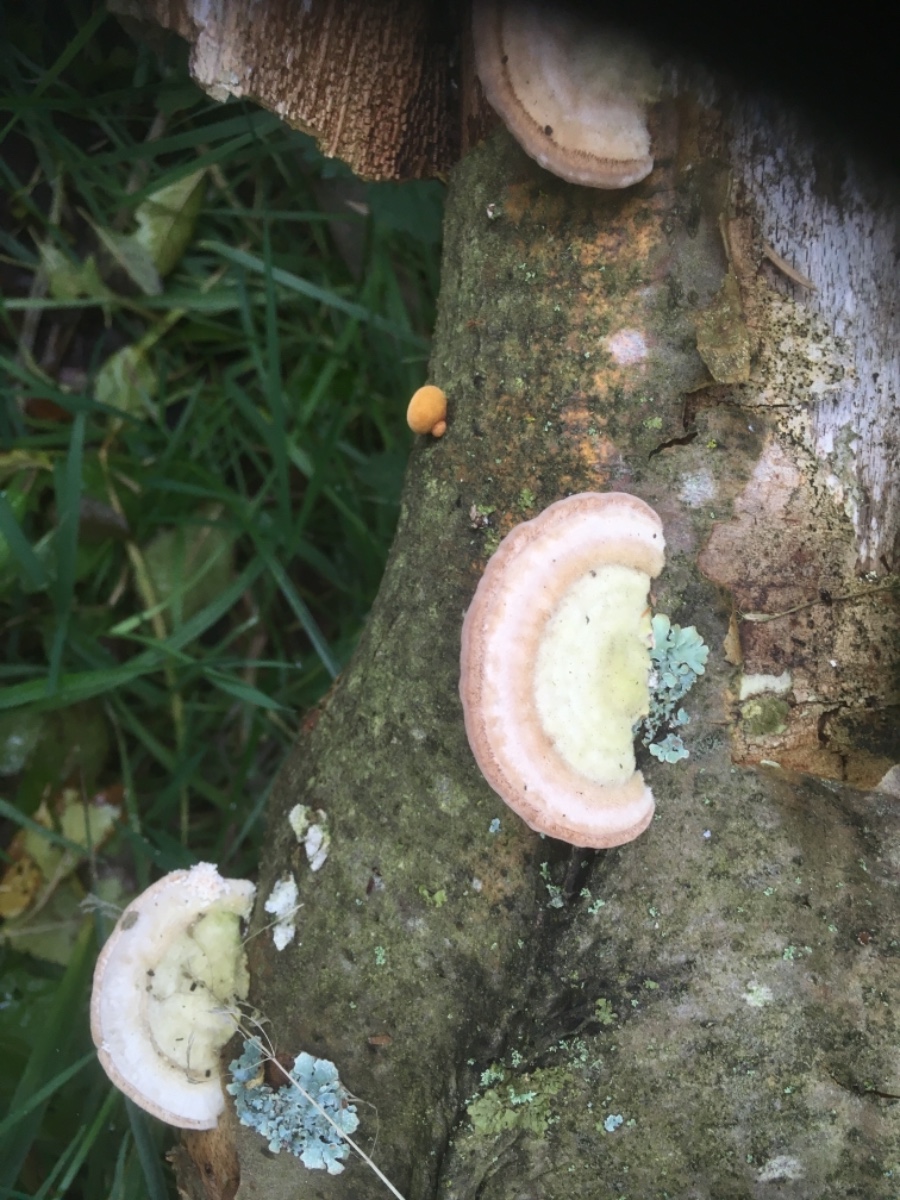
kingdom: Fungi
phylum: Basidiomycota
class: Agaricomycetes
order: Polyporales
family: Polyporaceae
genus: Trametes
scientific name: Trametes hirsuta
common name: håret læderporesvamp
